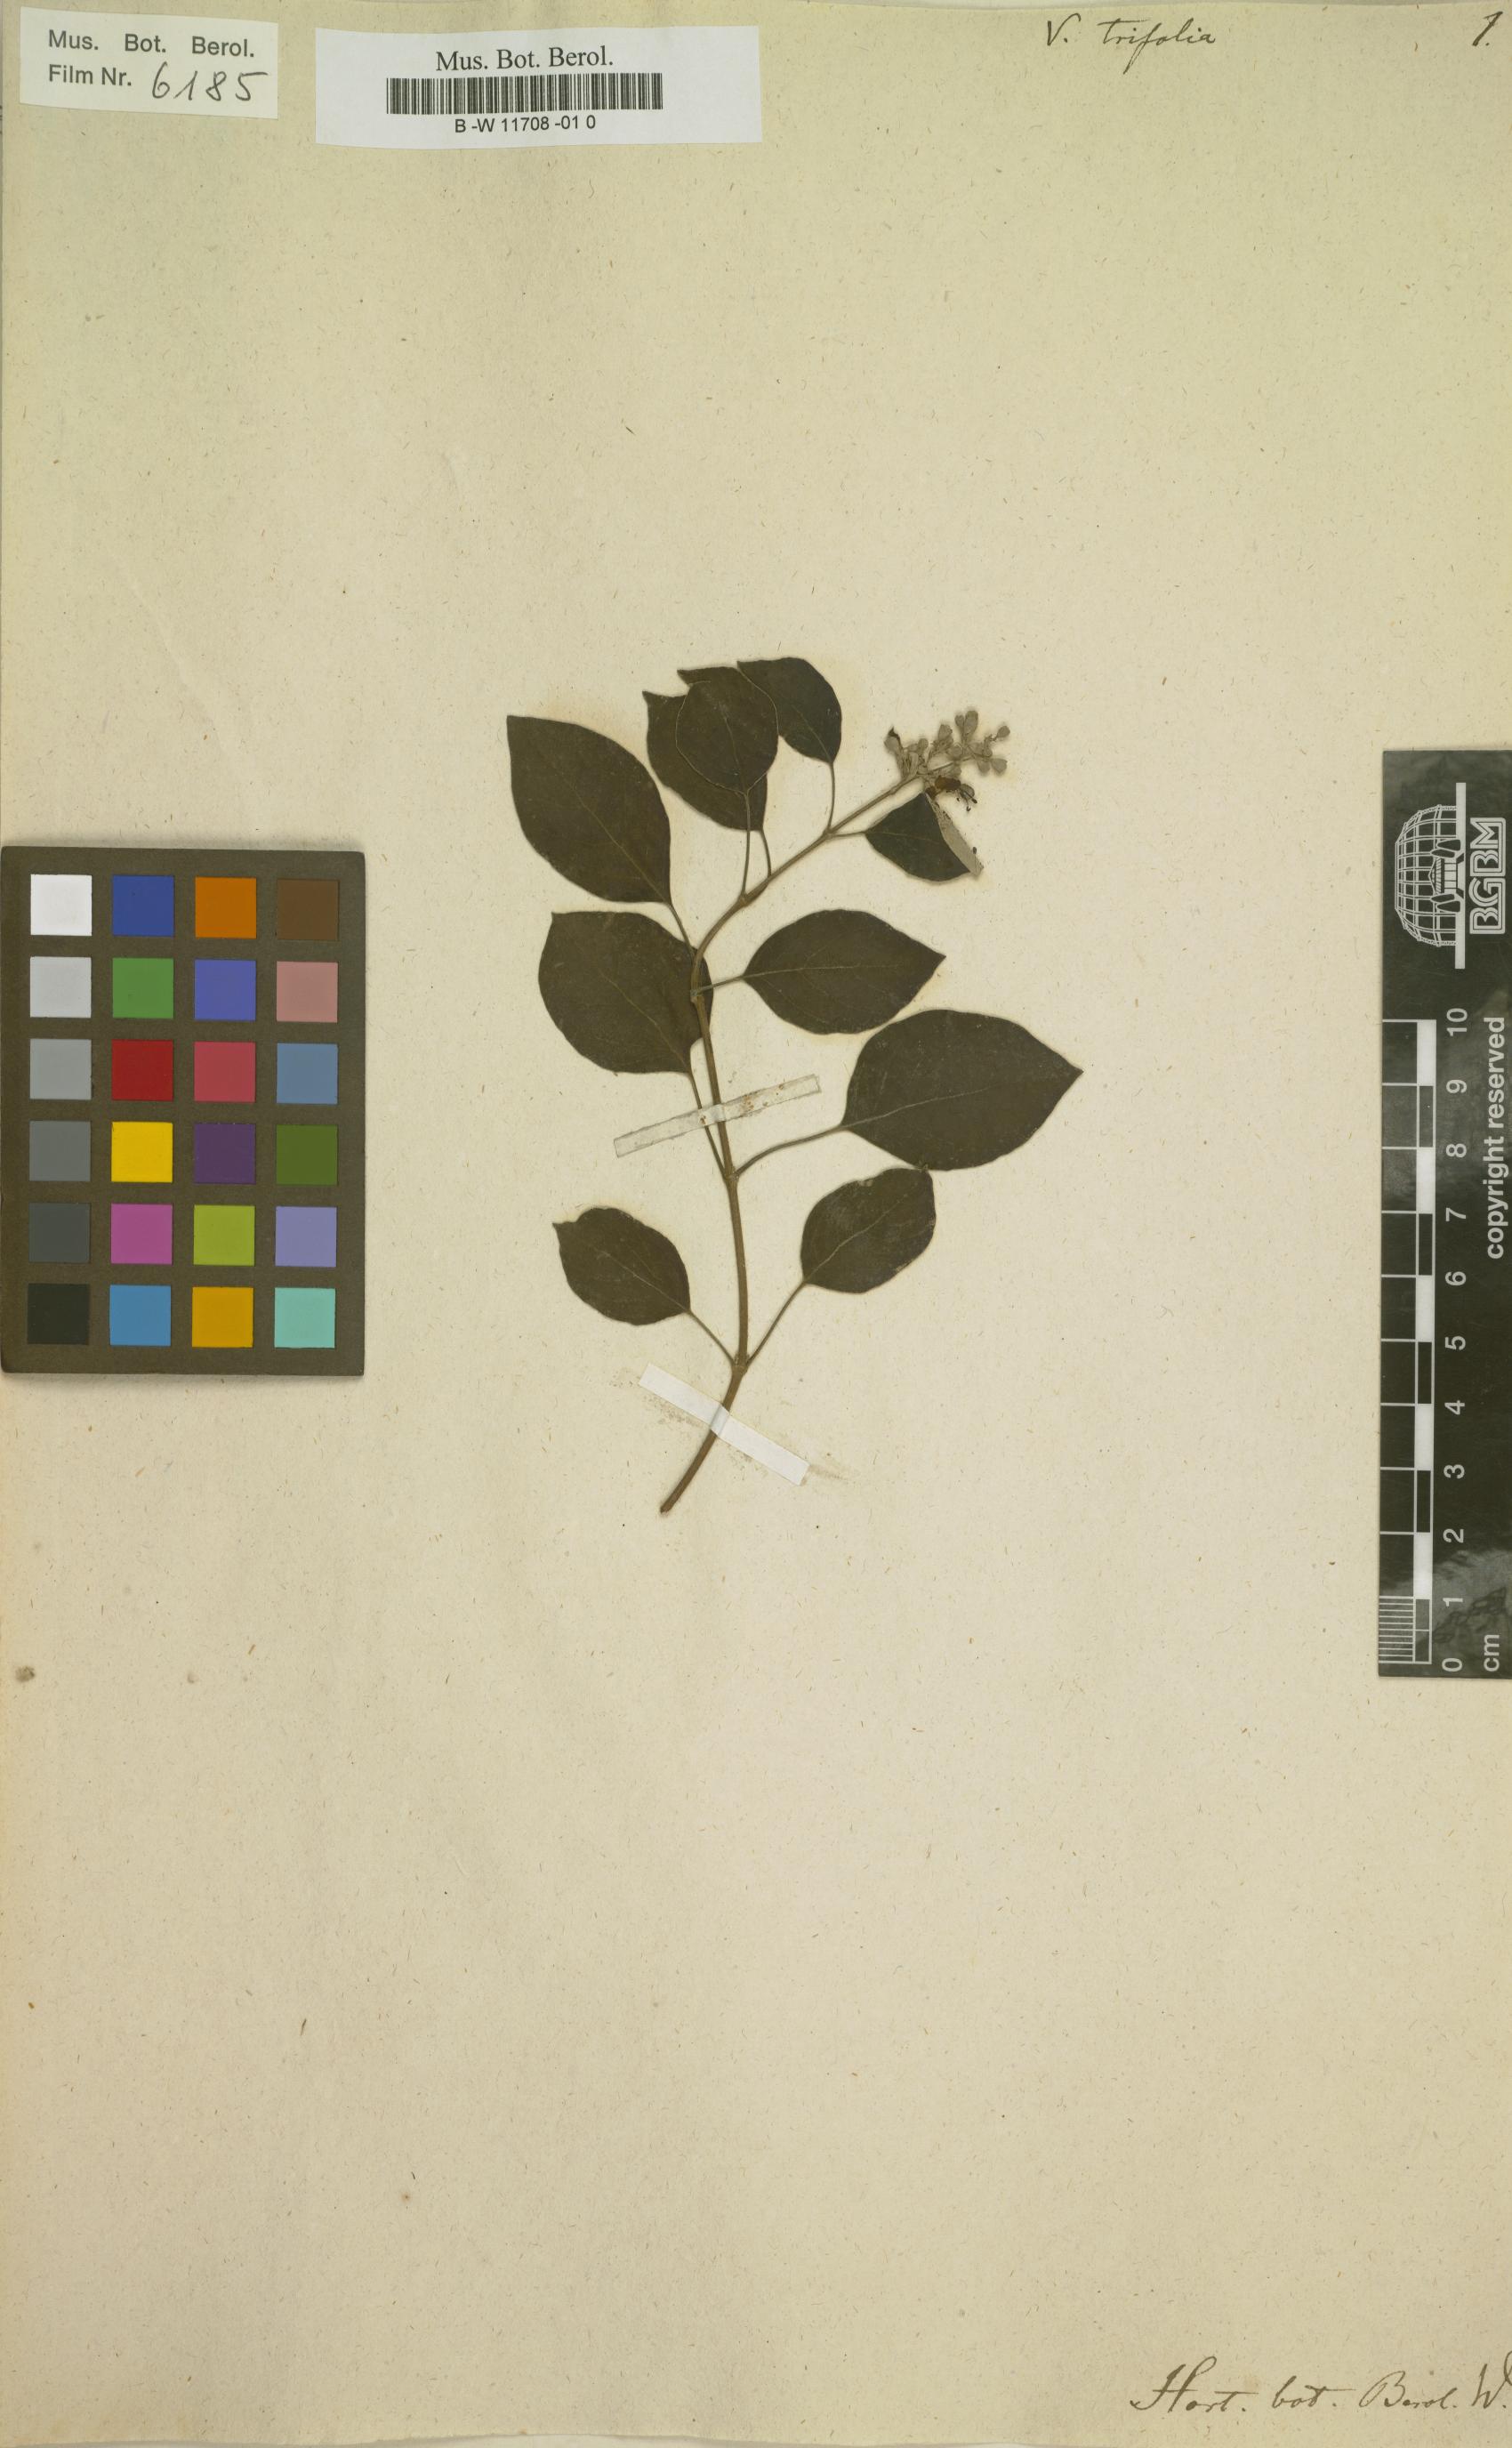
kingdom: Plantae
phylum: Tracheophyta
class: Magnoliopsida
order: Lamiales
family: Lamiaceae
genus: Vitex
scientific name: Vitex trifolia
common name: Simpleleaf chastetree
